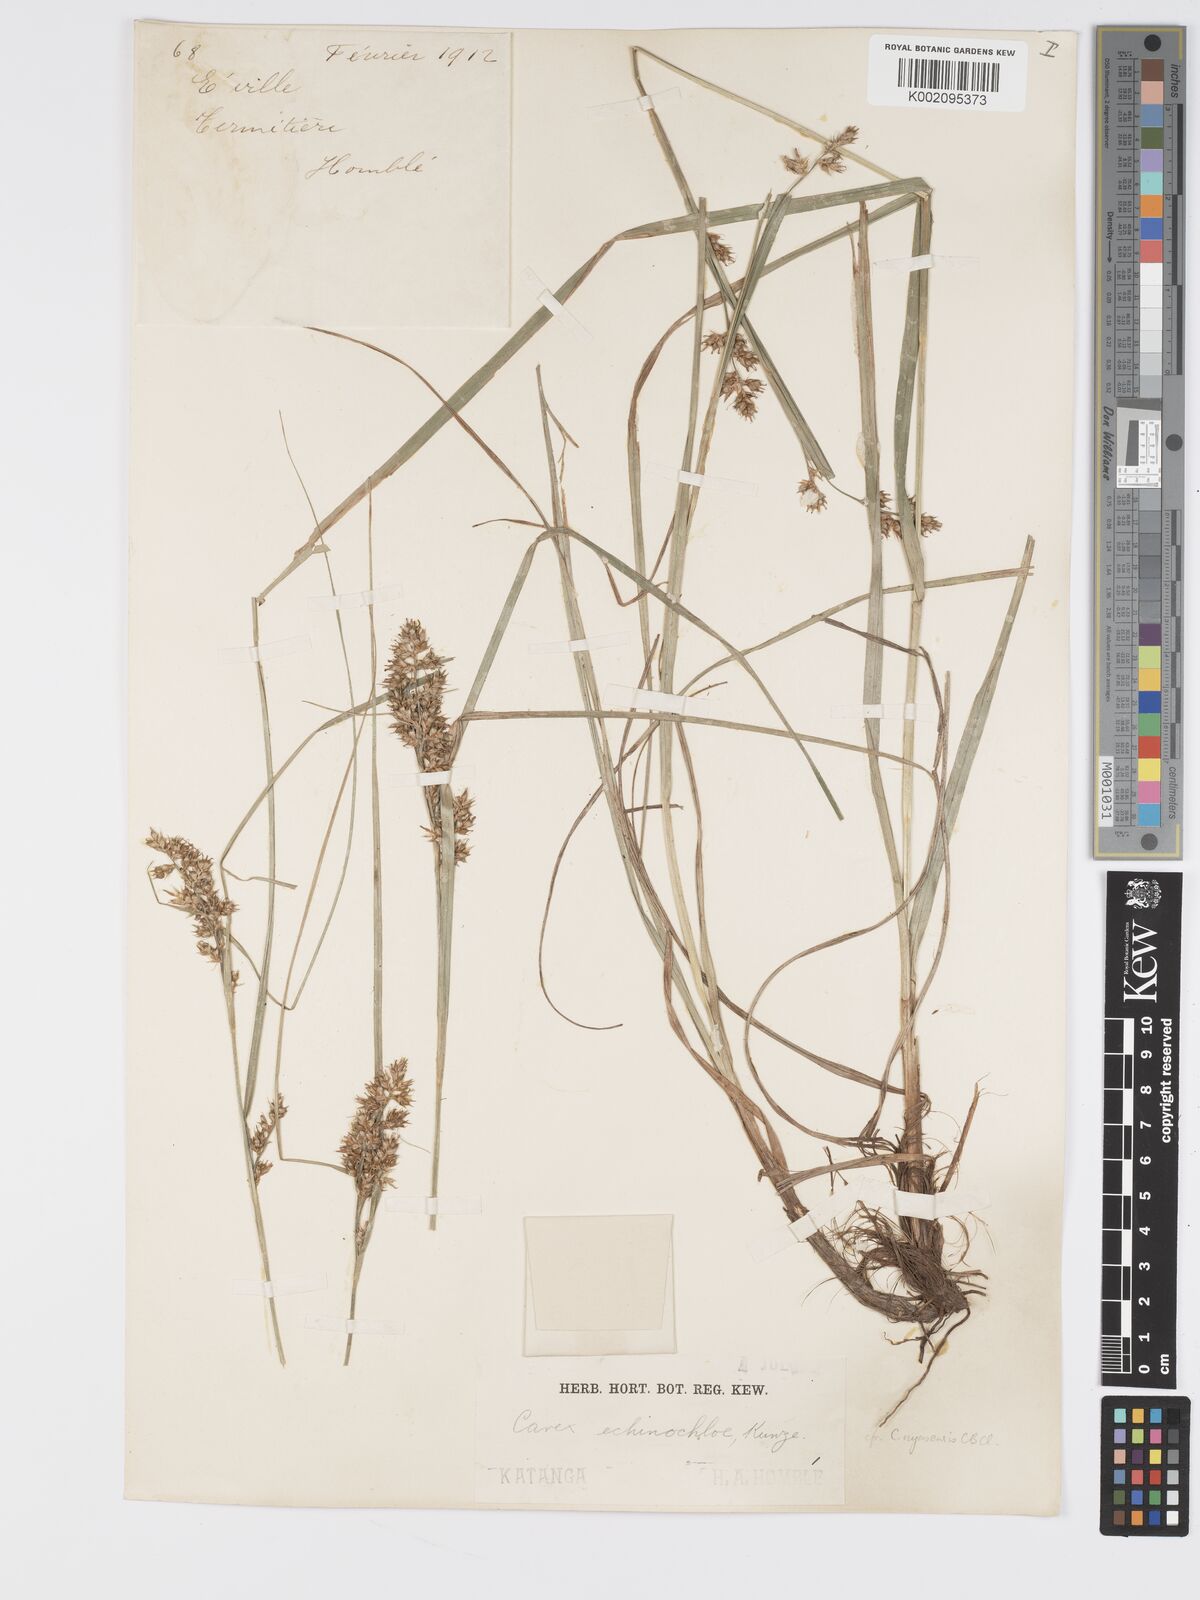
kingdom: Plantae
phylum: Tracheophyta
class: Liliopsida
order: Poales
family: Cyperaceae
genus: Carex
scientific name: Carex macrophyllidion
